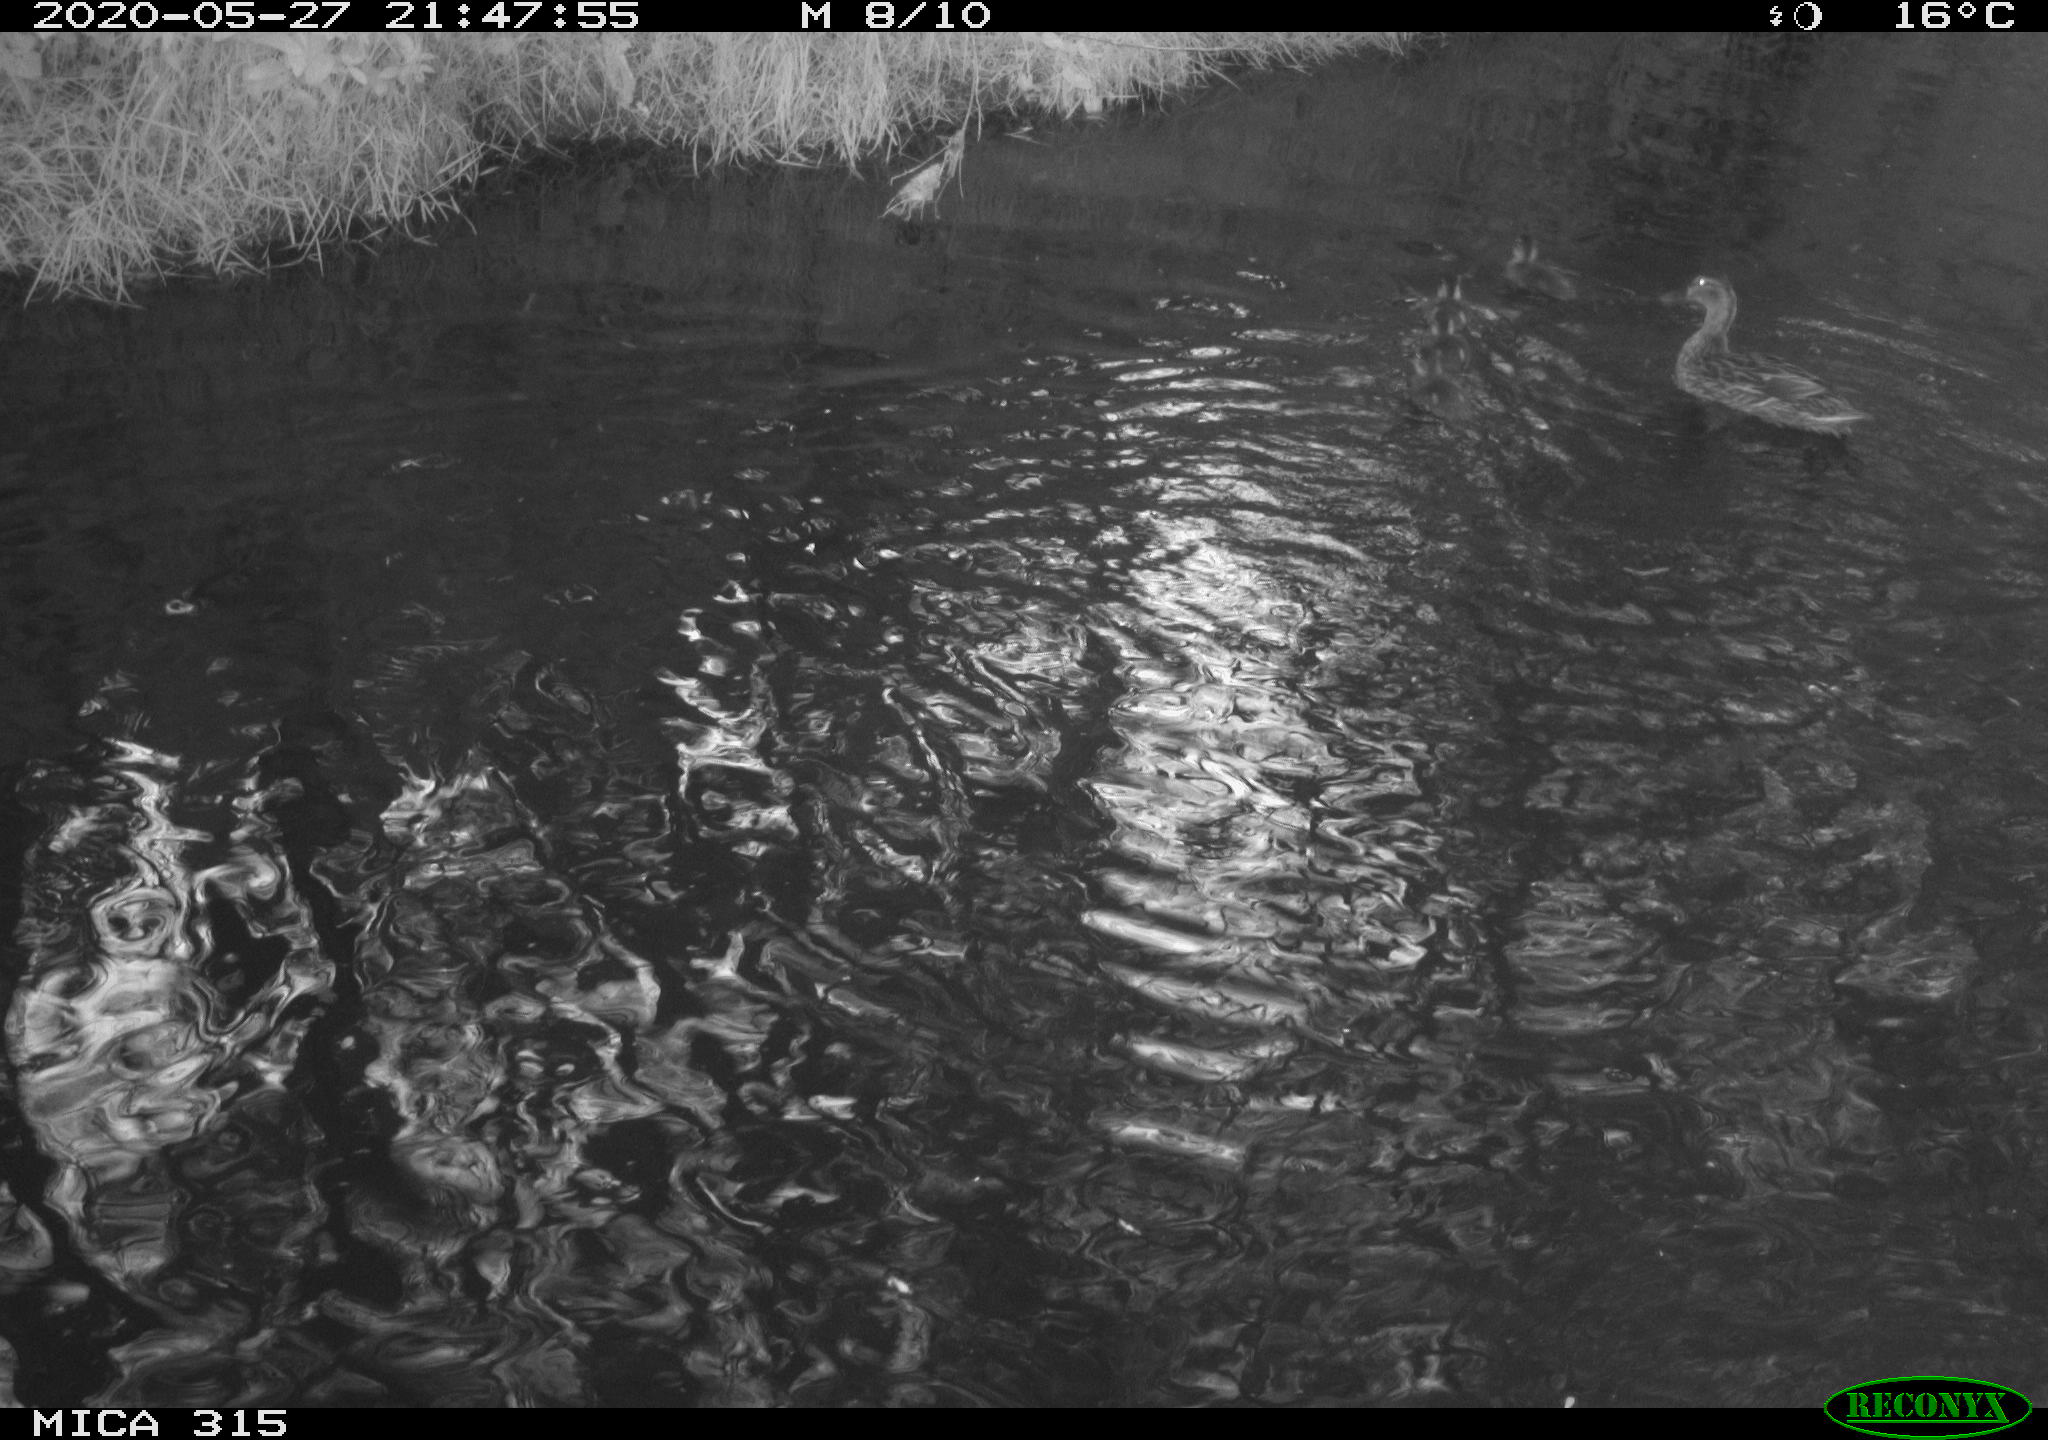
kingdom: Animalia
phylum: Chordata
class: Aves
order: Anseriformes
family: Anatidae
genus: Anas
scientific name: Anas platyrhynchos
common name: Mallard
